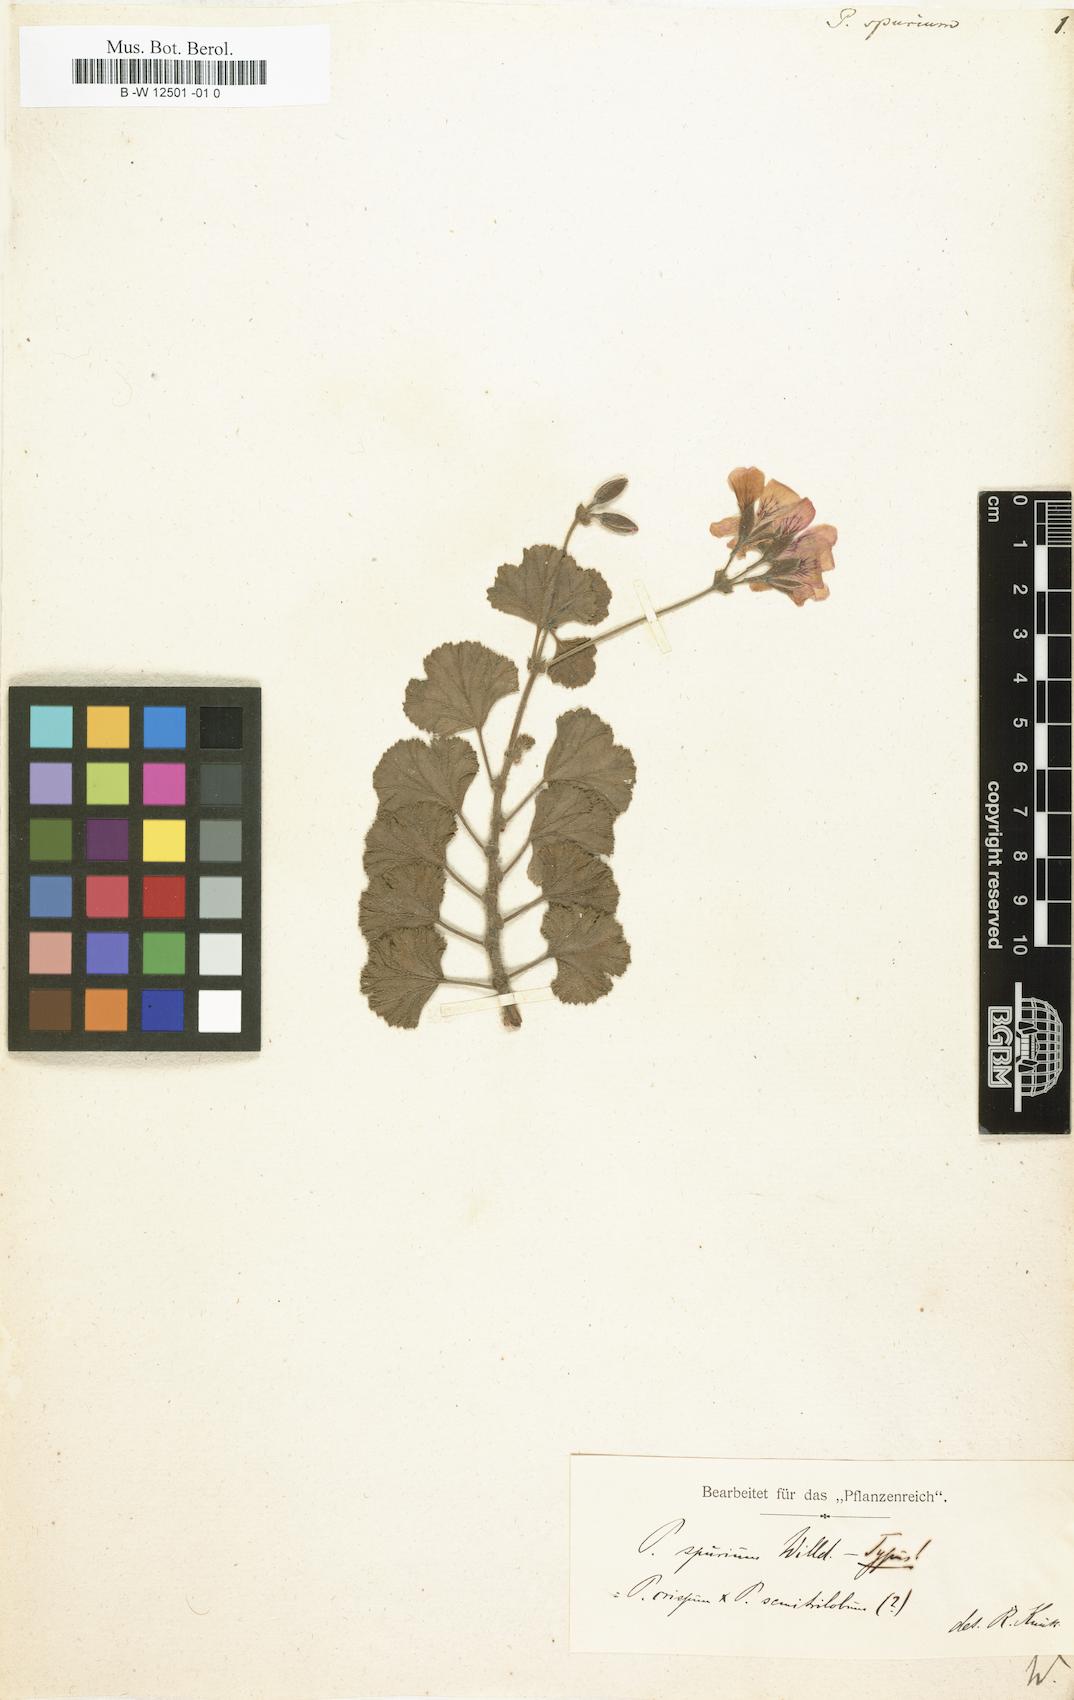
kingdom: Plantae
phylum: Tracheophyta
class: Magnoliopsida
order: Geraniales
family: Geraniaceae
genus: Pelargonium
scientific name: Pelargonium spurium
